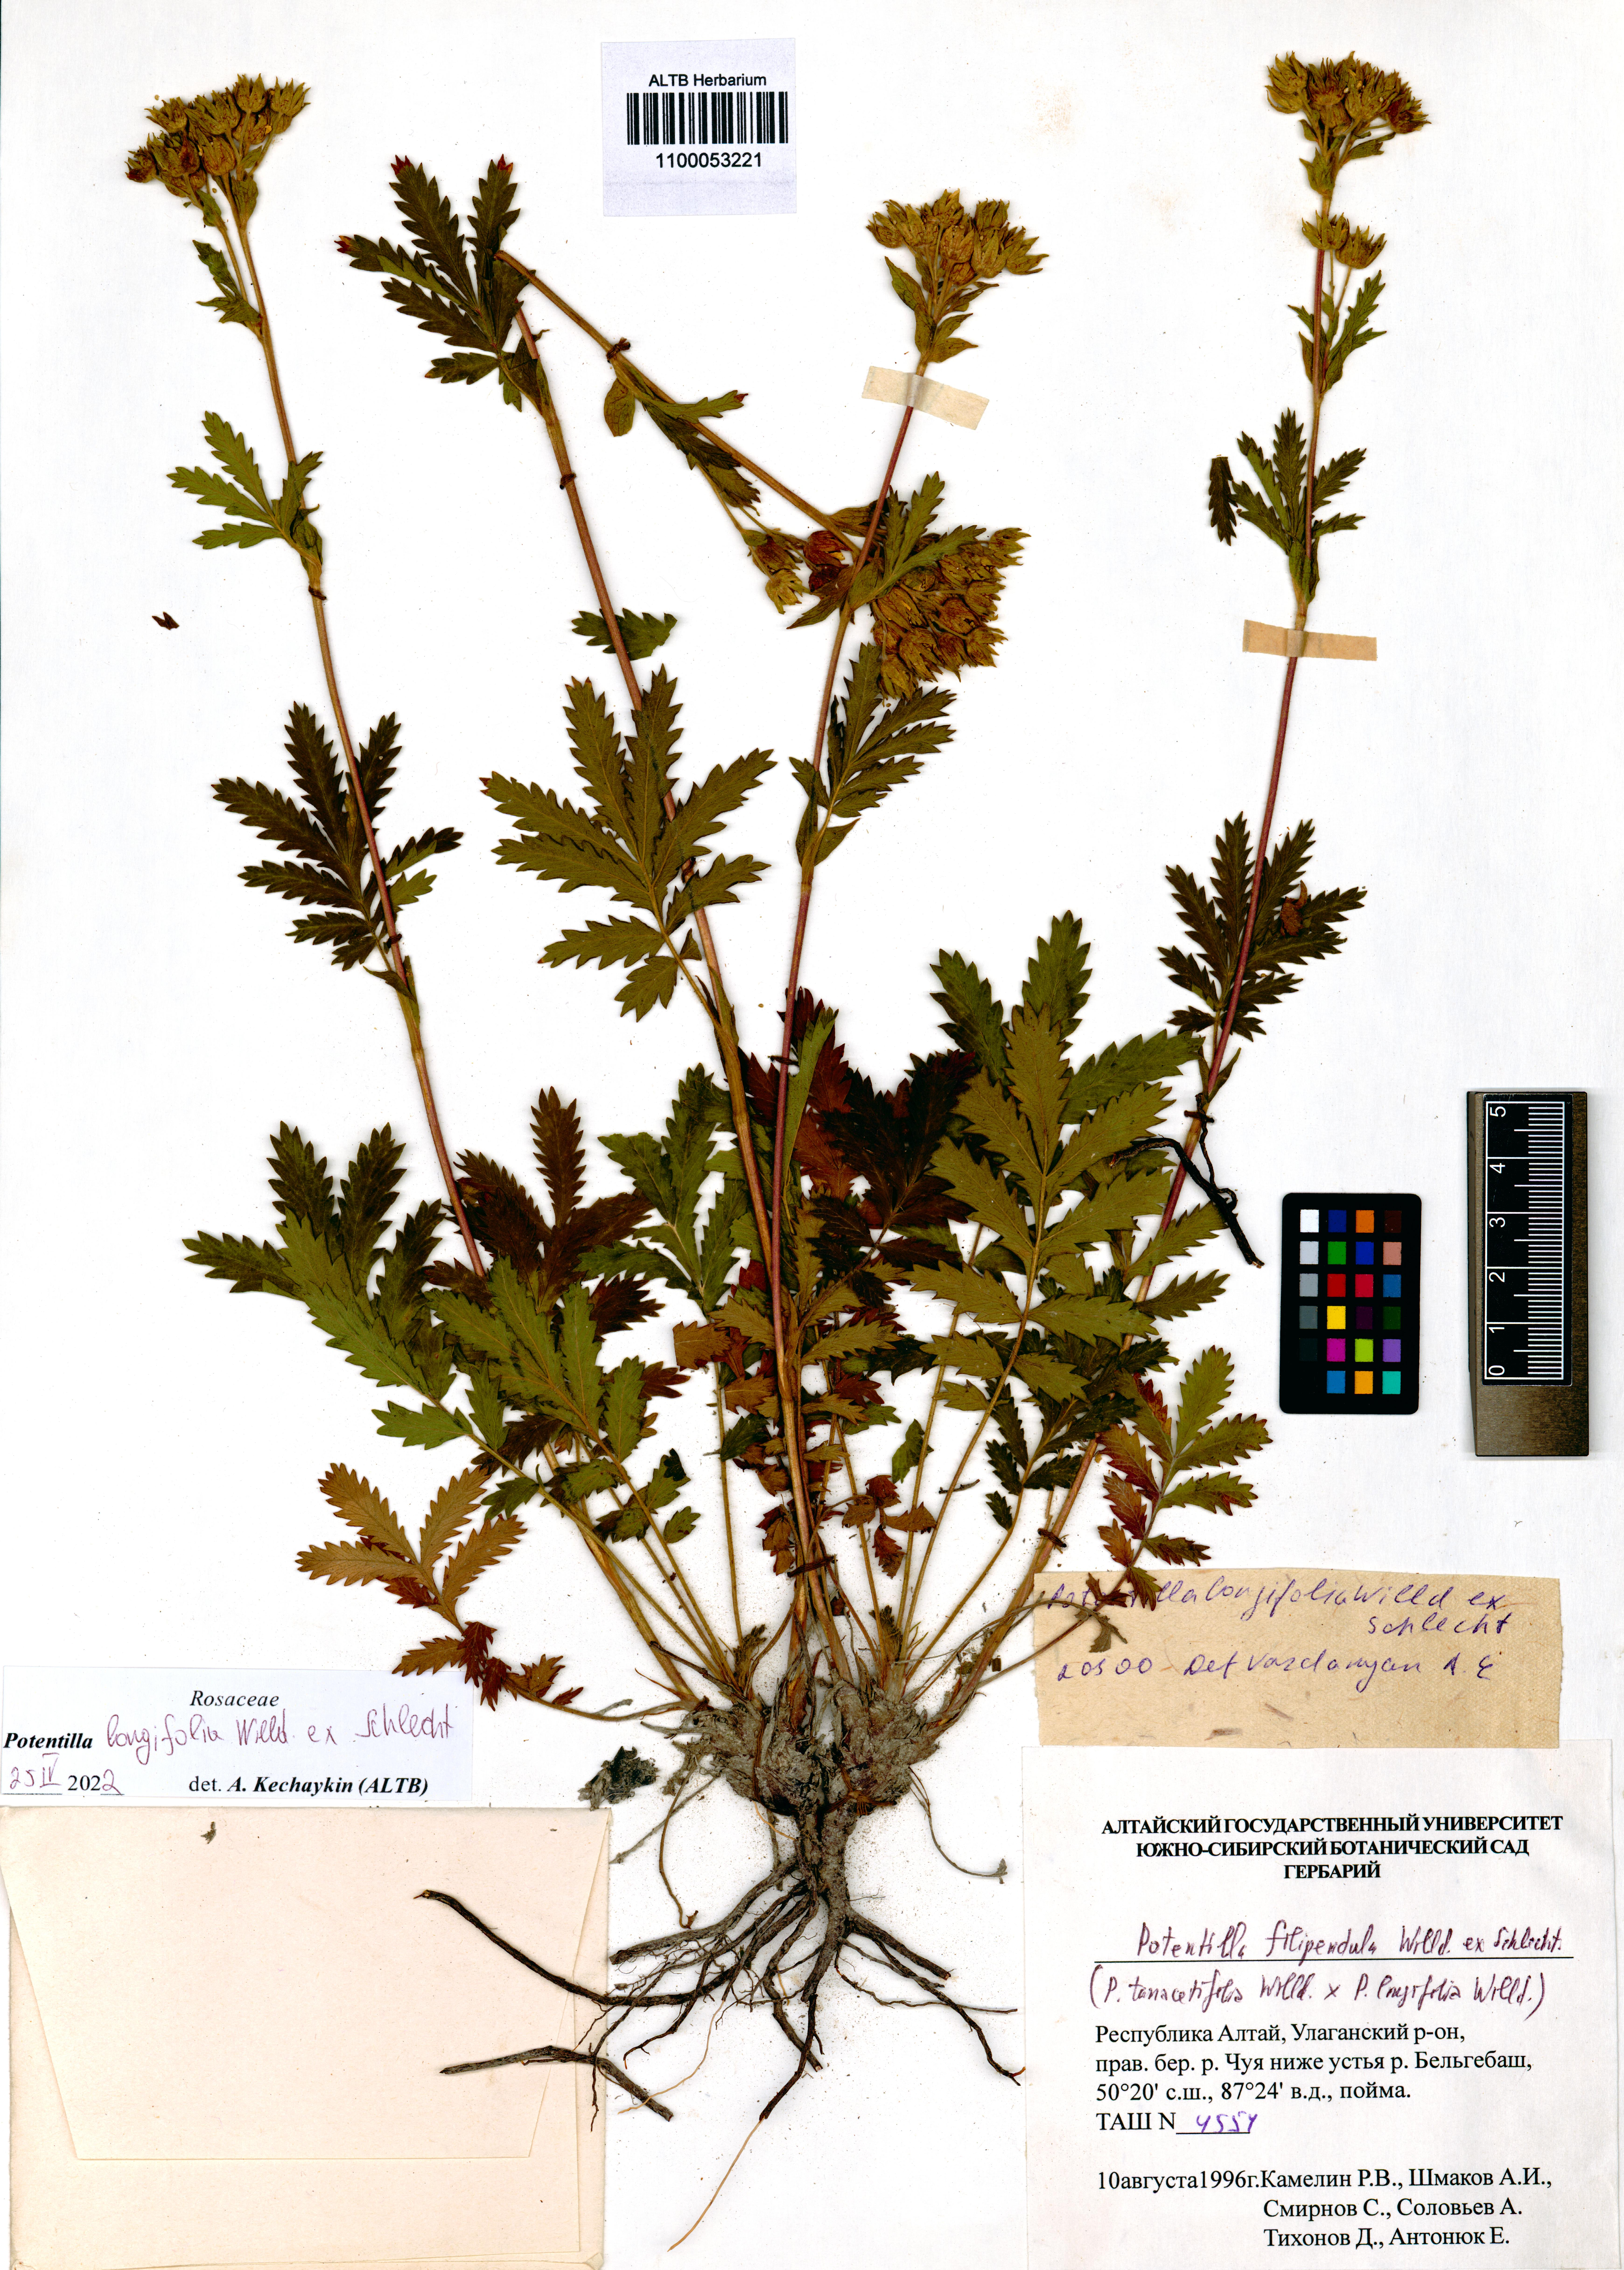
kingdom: Plantae
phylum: Tracheophyta
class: Magnoliopsida
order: Rosales
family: Rosaceae
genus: Potentilla
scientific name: Potentilla longifolia
